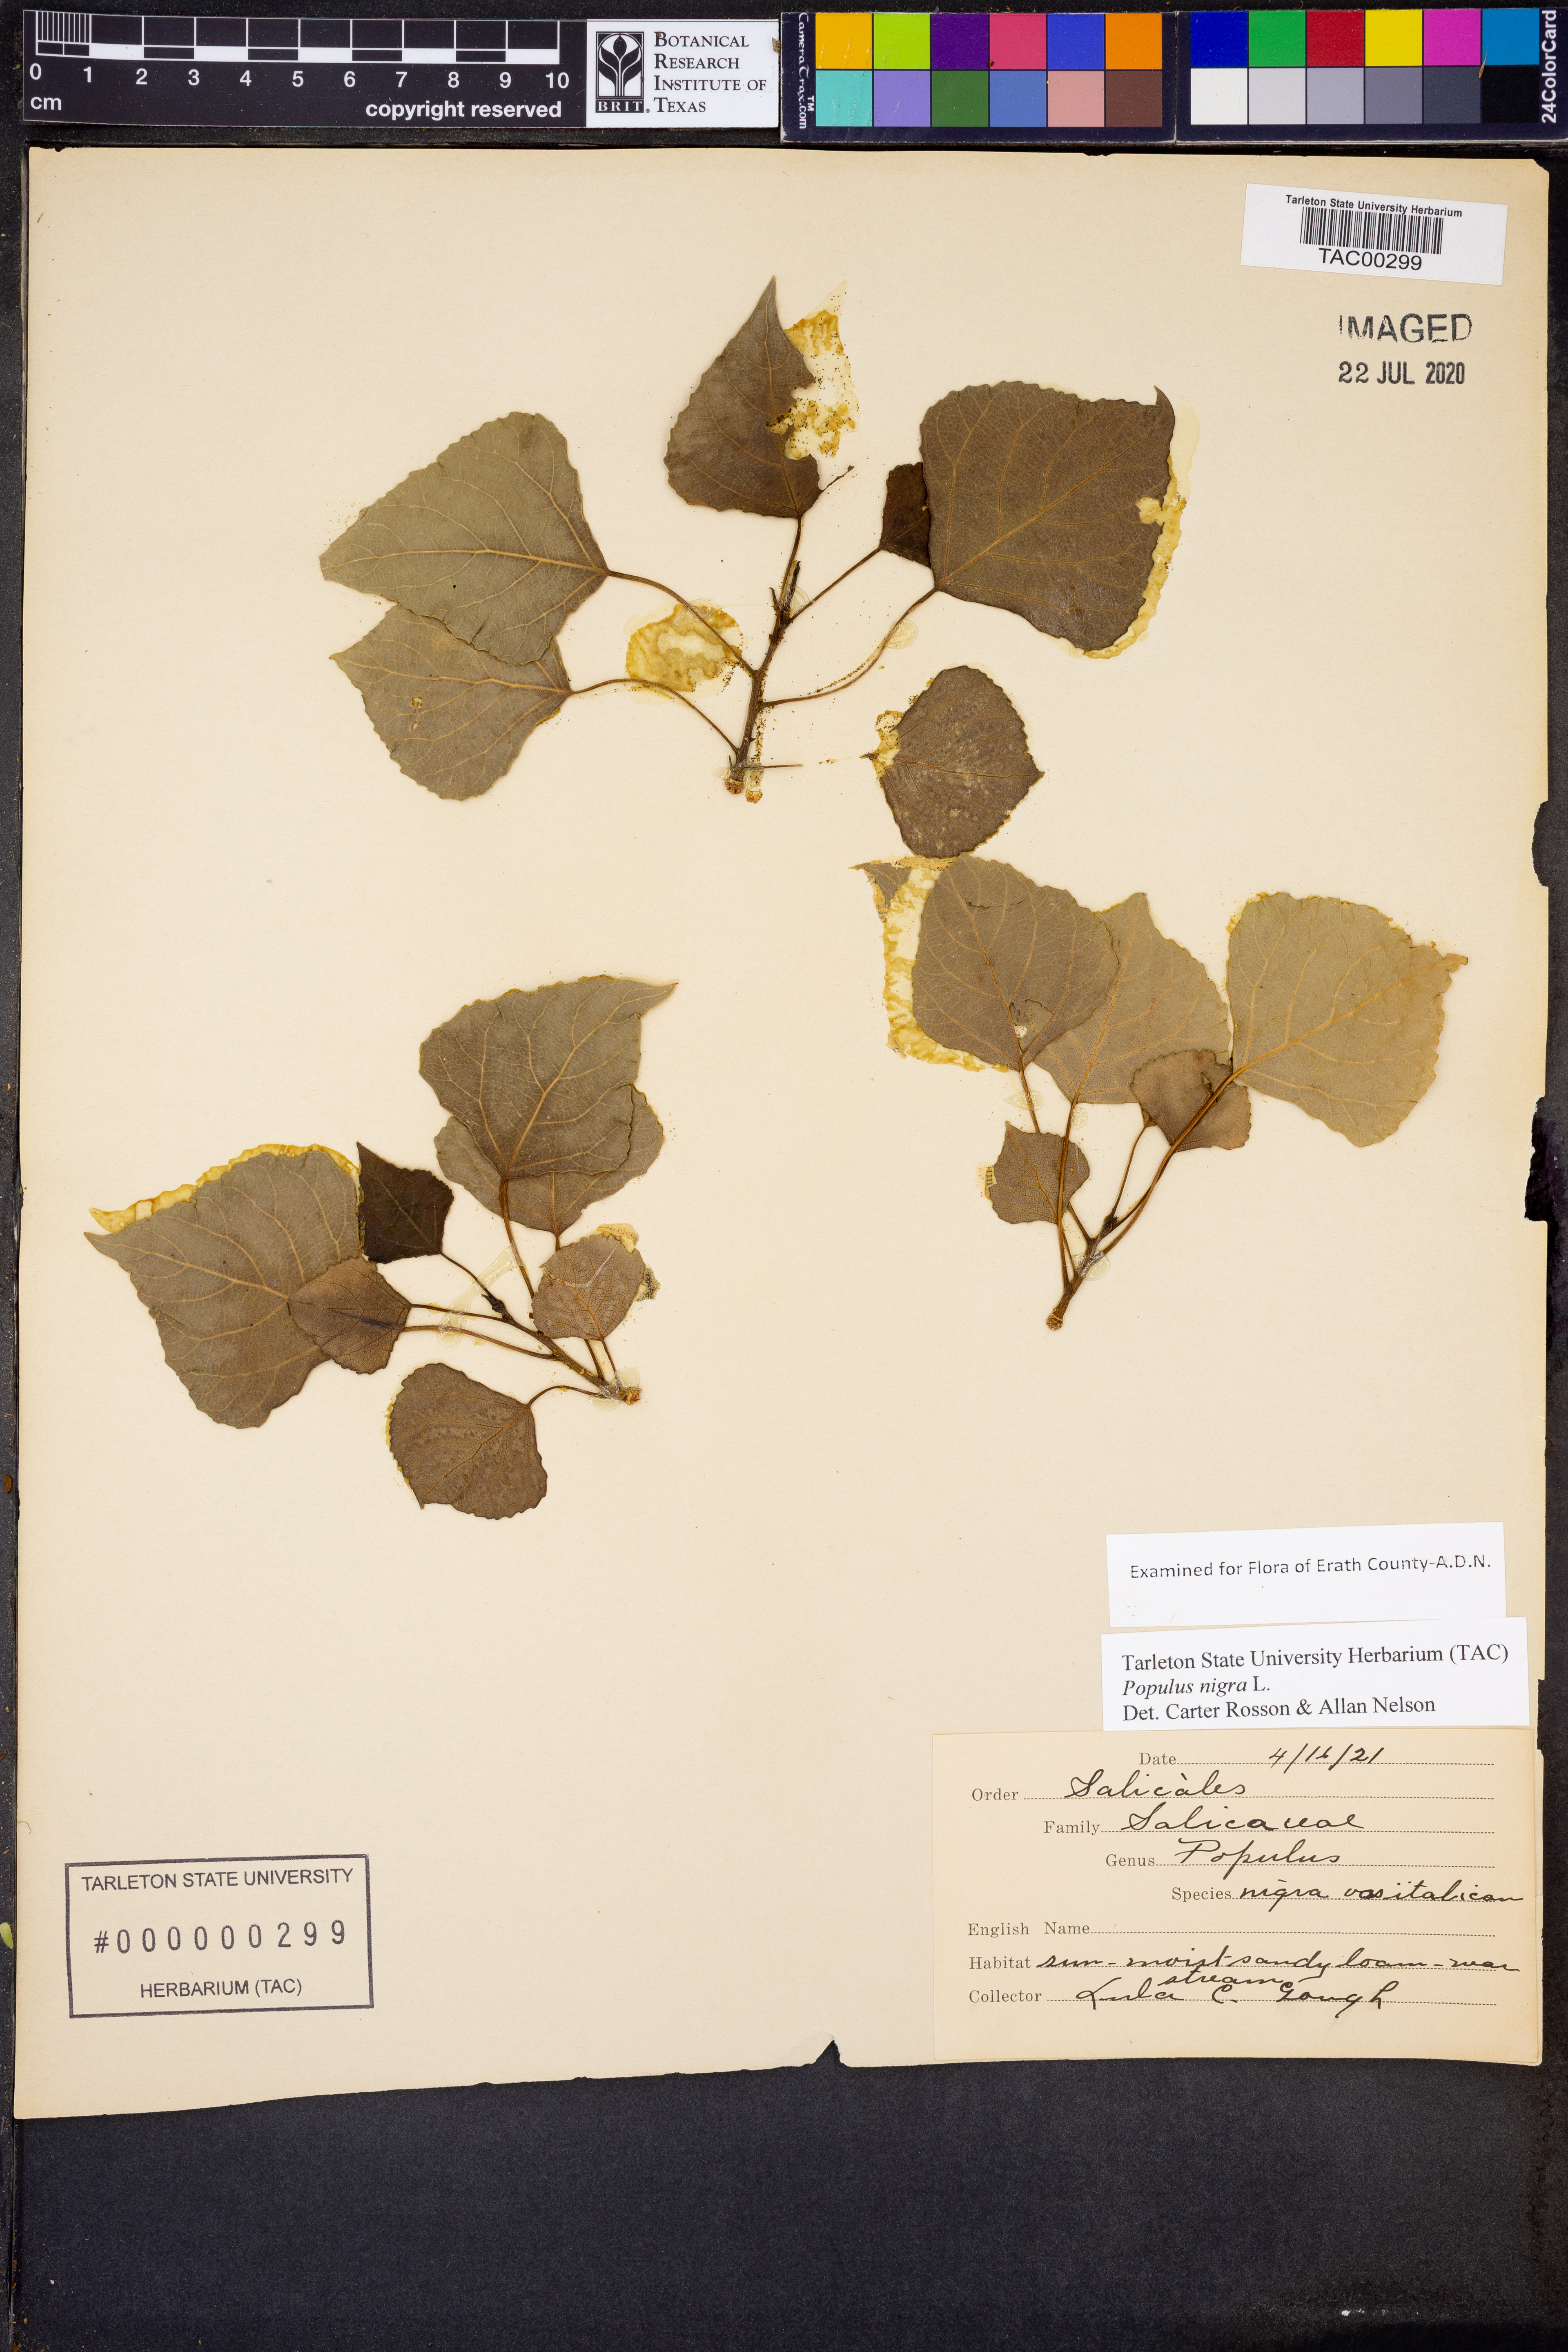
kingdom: Plantae
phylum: Tracheophyta
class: Magnoliopsida
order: Malpighiales
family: Salicaceae
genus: Populus
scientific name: Populus nigra
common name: Black poplar
